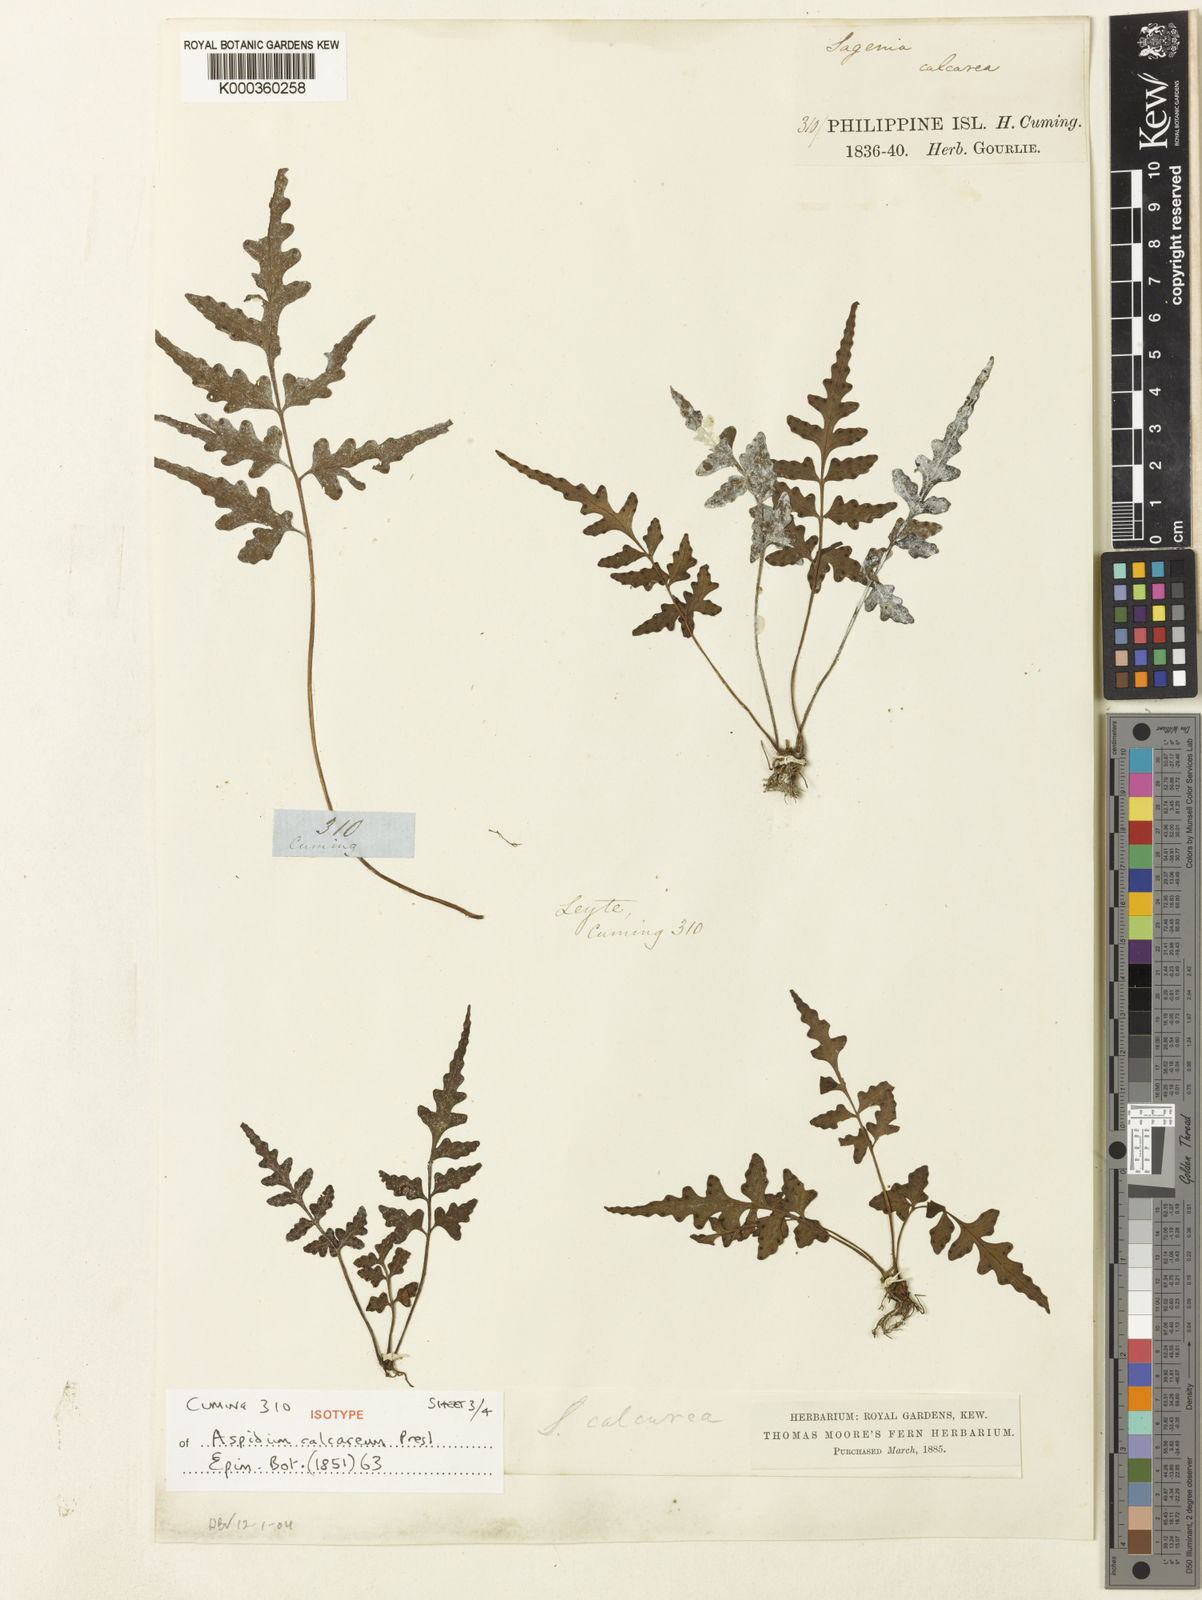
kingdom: Plantae
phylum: Tracheophyta
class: Polypodiopsida
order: Polypodiales
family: Tectariaceae
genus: Tectaria
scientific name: Tectaria calcarea
